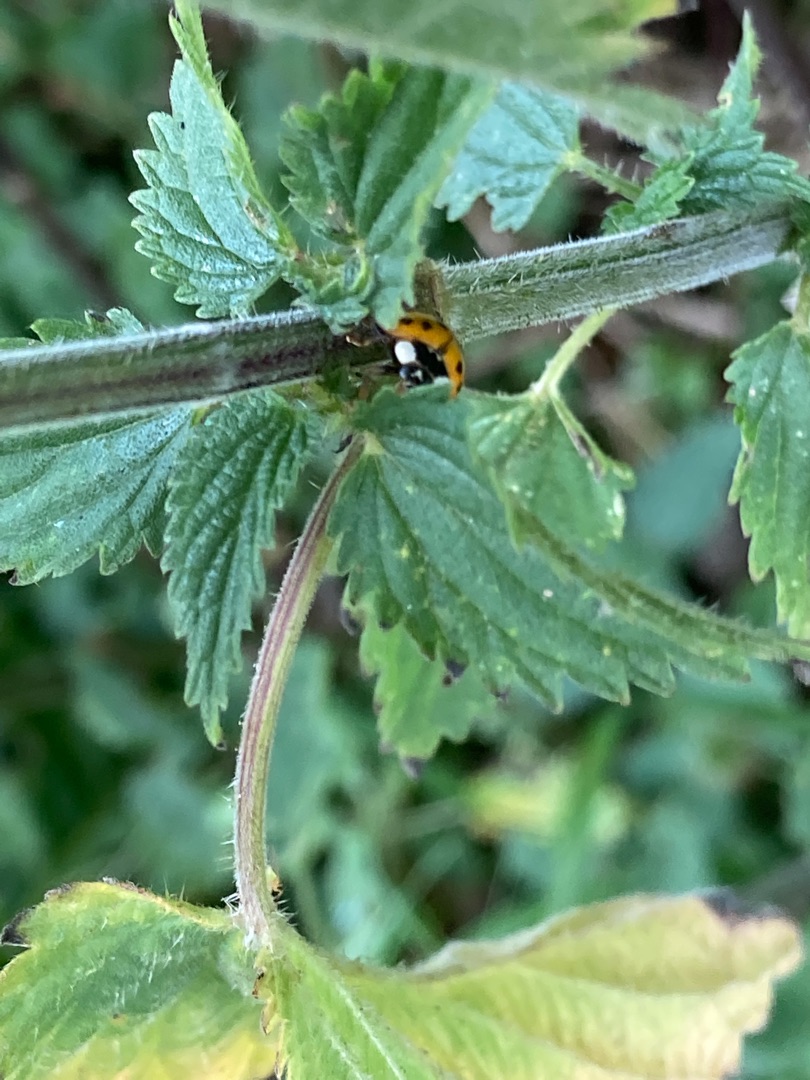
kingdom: Animalia
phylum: Arthropoda
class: Insecta
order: Coleoptera
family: Coccinellidae
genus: Harmonia
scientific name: Harmonia axyridis
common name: Harlekinmariehøne
